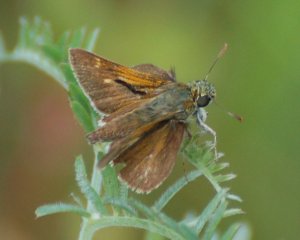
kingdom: Animalia
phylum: Arthropoda
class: Insecta
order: Lepidoptera
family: Hesperiidae
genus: Polites
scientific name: Polites themistocles
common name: Tawny-edged Skipper
